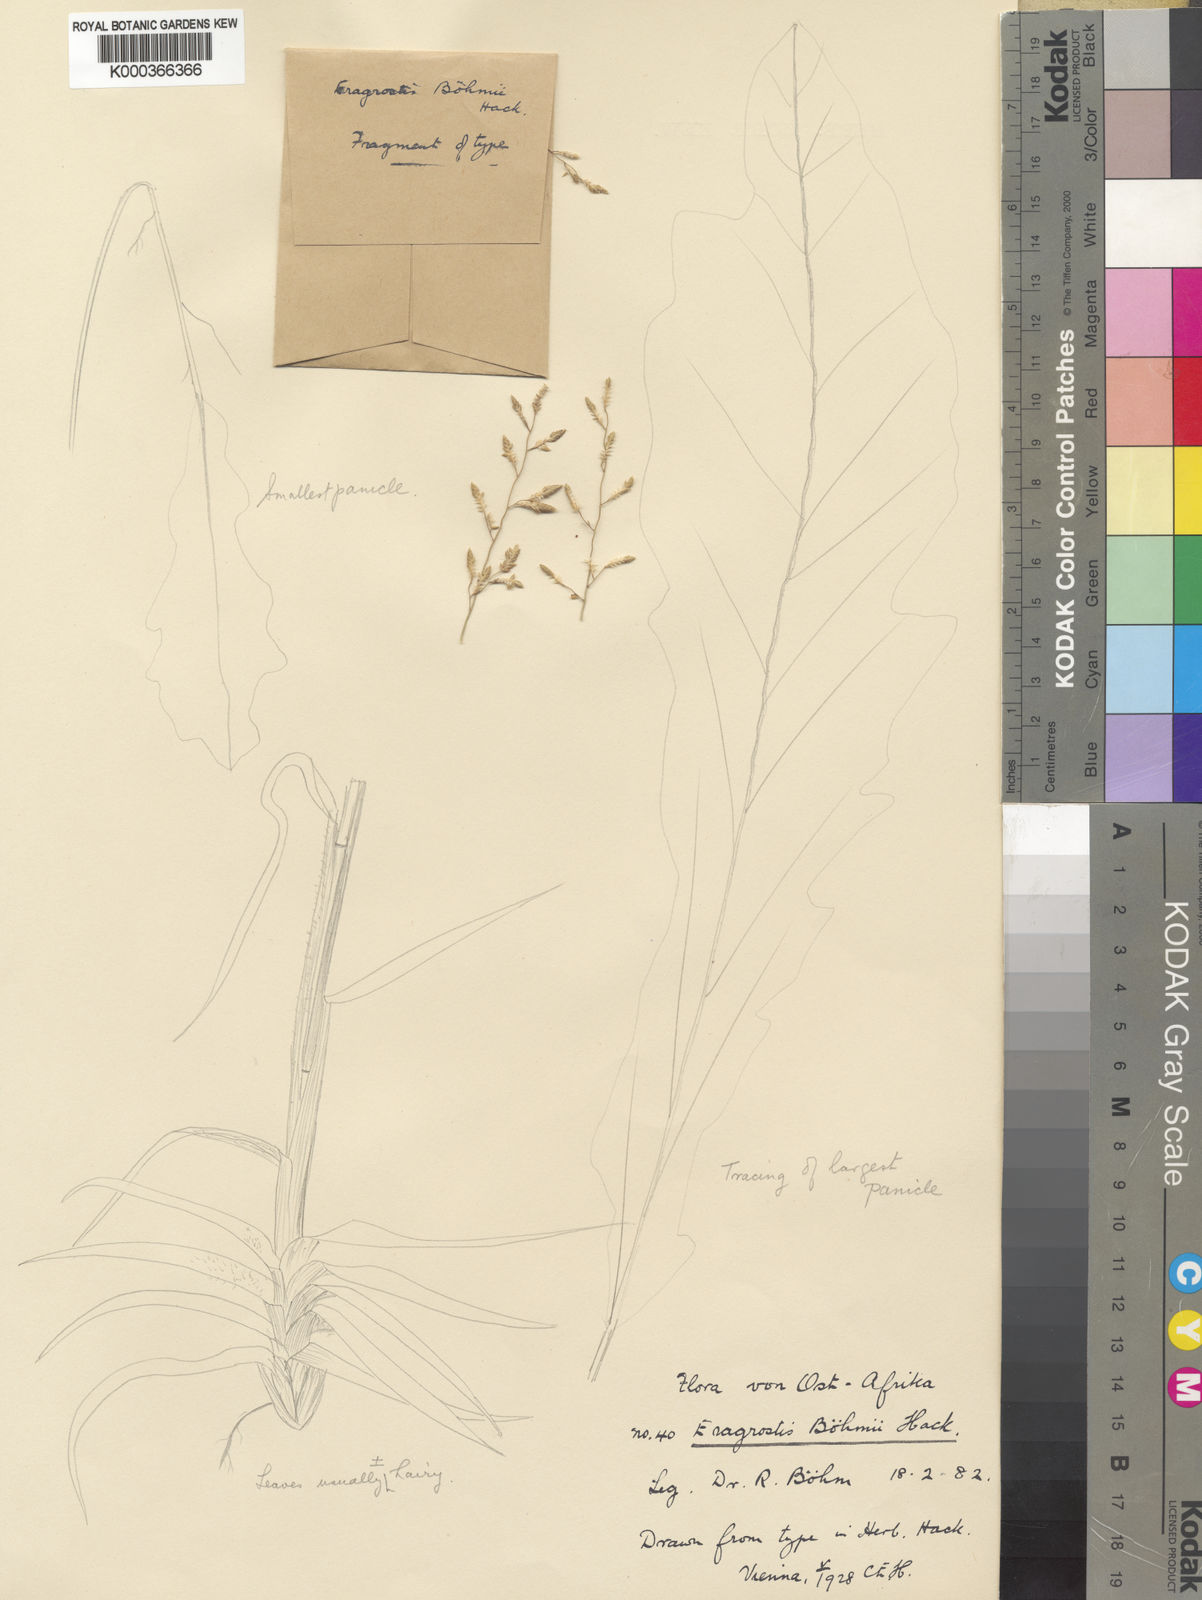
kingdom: Plantae
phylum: Tracheophyta
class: Liliopsida
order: Poales
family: Poaceae
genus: Eragrostis
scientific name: Eragrostis racemosa
